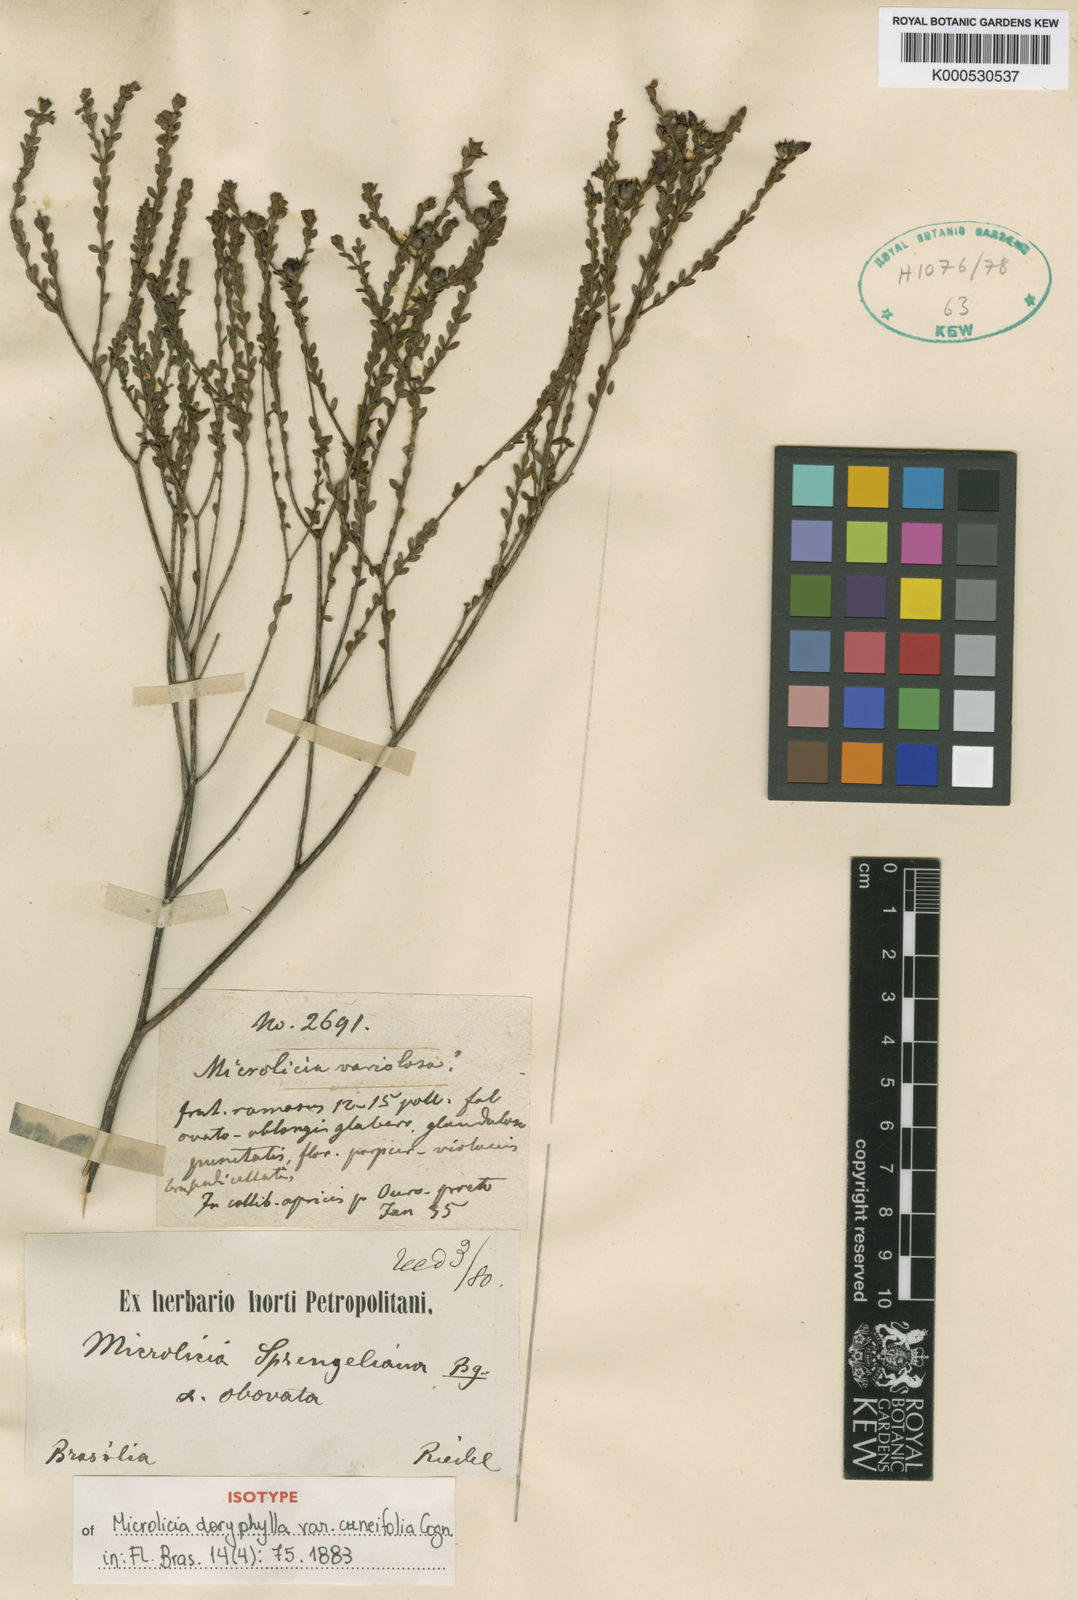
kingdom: Plantae
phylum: Tracheophyta
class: Magnoliopsida
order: Myrtales
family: Melastomataceae
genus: Microlicia
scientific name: Microlicia isophylla
